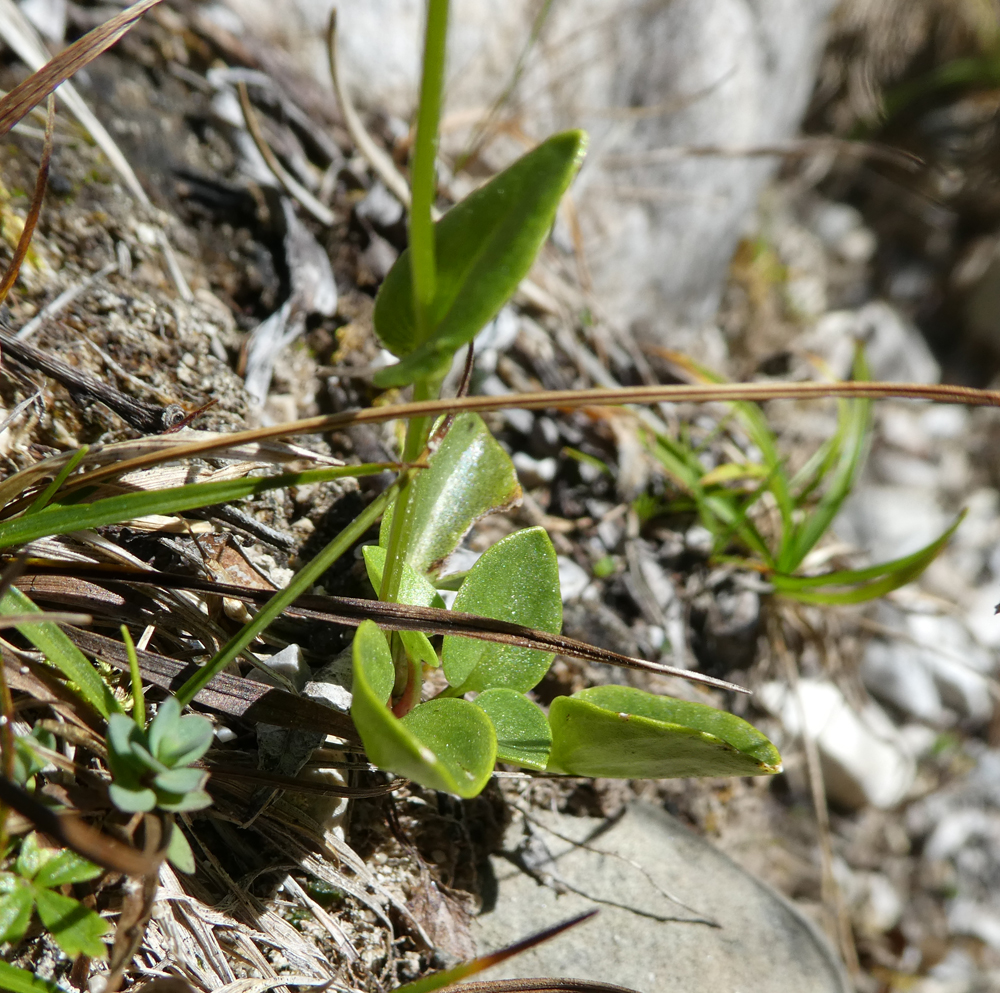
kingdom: Plantae
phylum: Tracheophyta
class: Magnoliopsida
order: Celastrales
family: Parnassiaceae
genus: Parnassia
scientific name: Parnassia palustris
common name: Grass-of-parnassus
